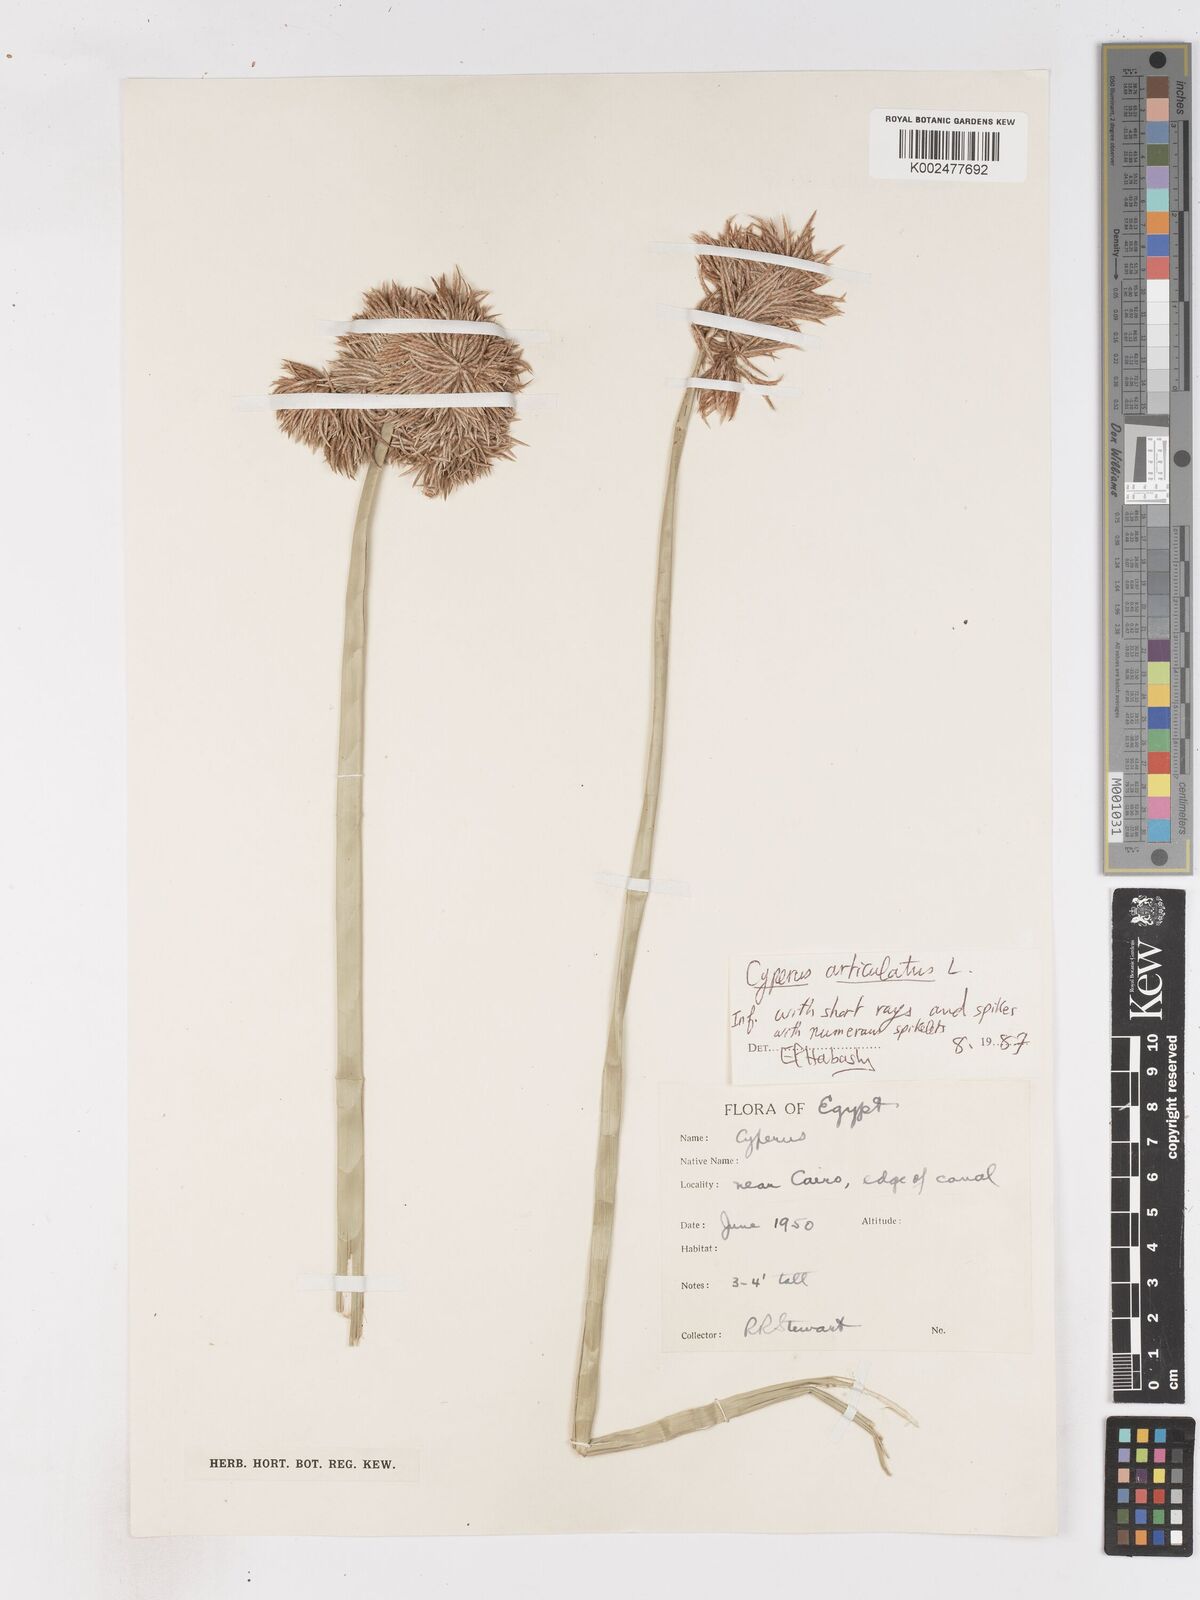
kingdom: Plantae
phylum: Tracheophyta
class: Liliopsida
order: Poales
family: Cyperaceae
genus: Cyperus
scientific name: Cyperus articulatus
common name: Jointed flatsedge
